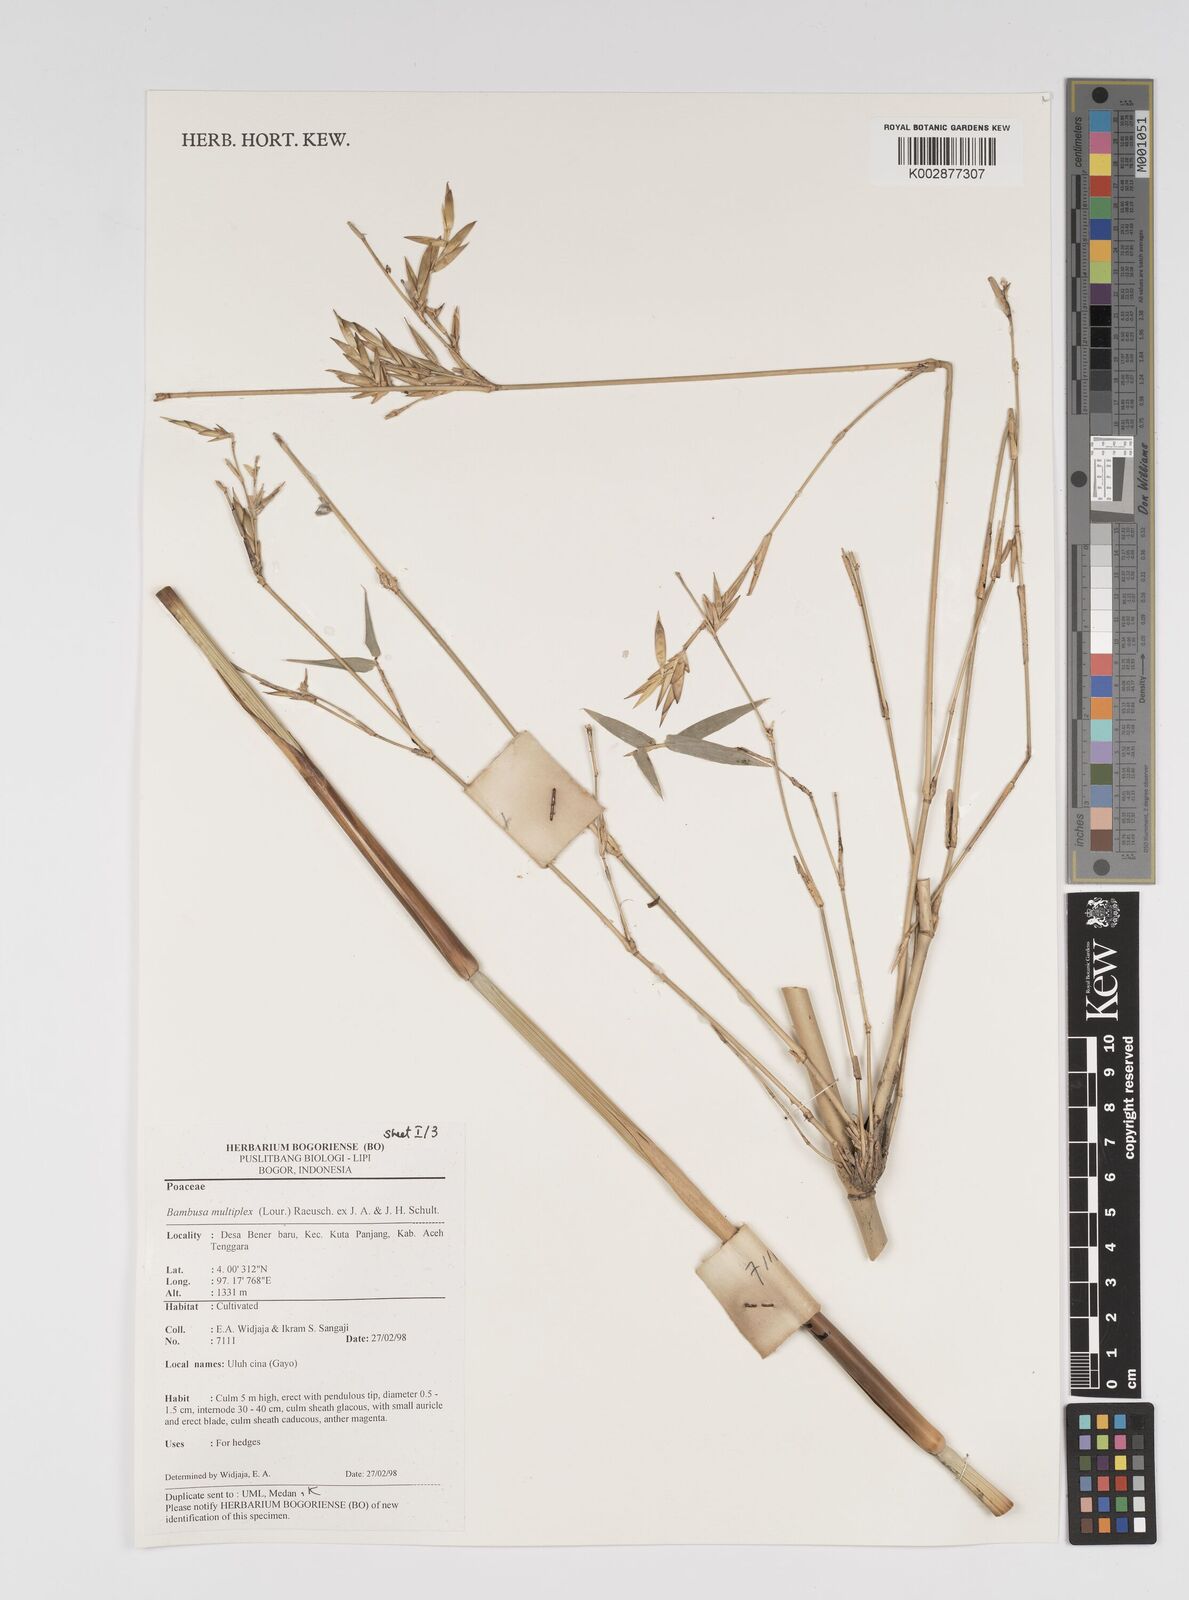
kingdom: Plantae
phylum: Tracheophyta
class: Liliopsida
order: Poales
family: Poaceae
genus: Bambusa
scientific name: Bambusa multiplex
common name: Hedge bamboo
